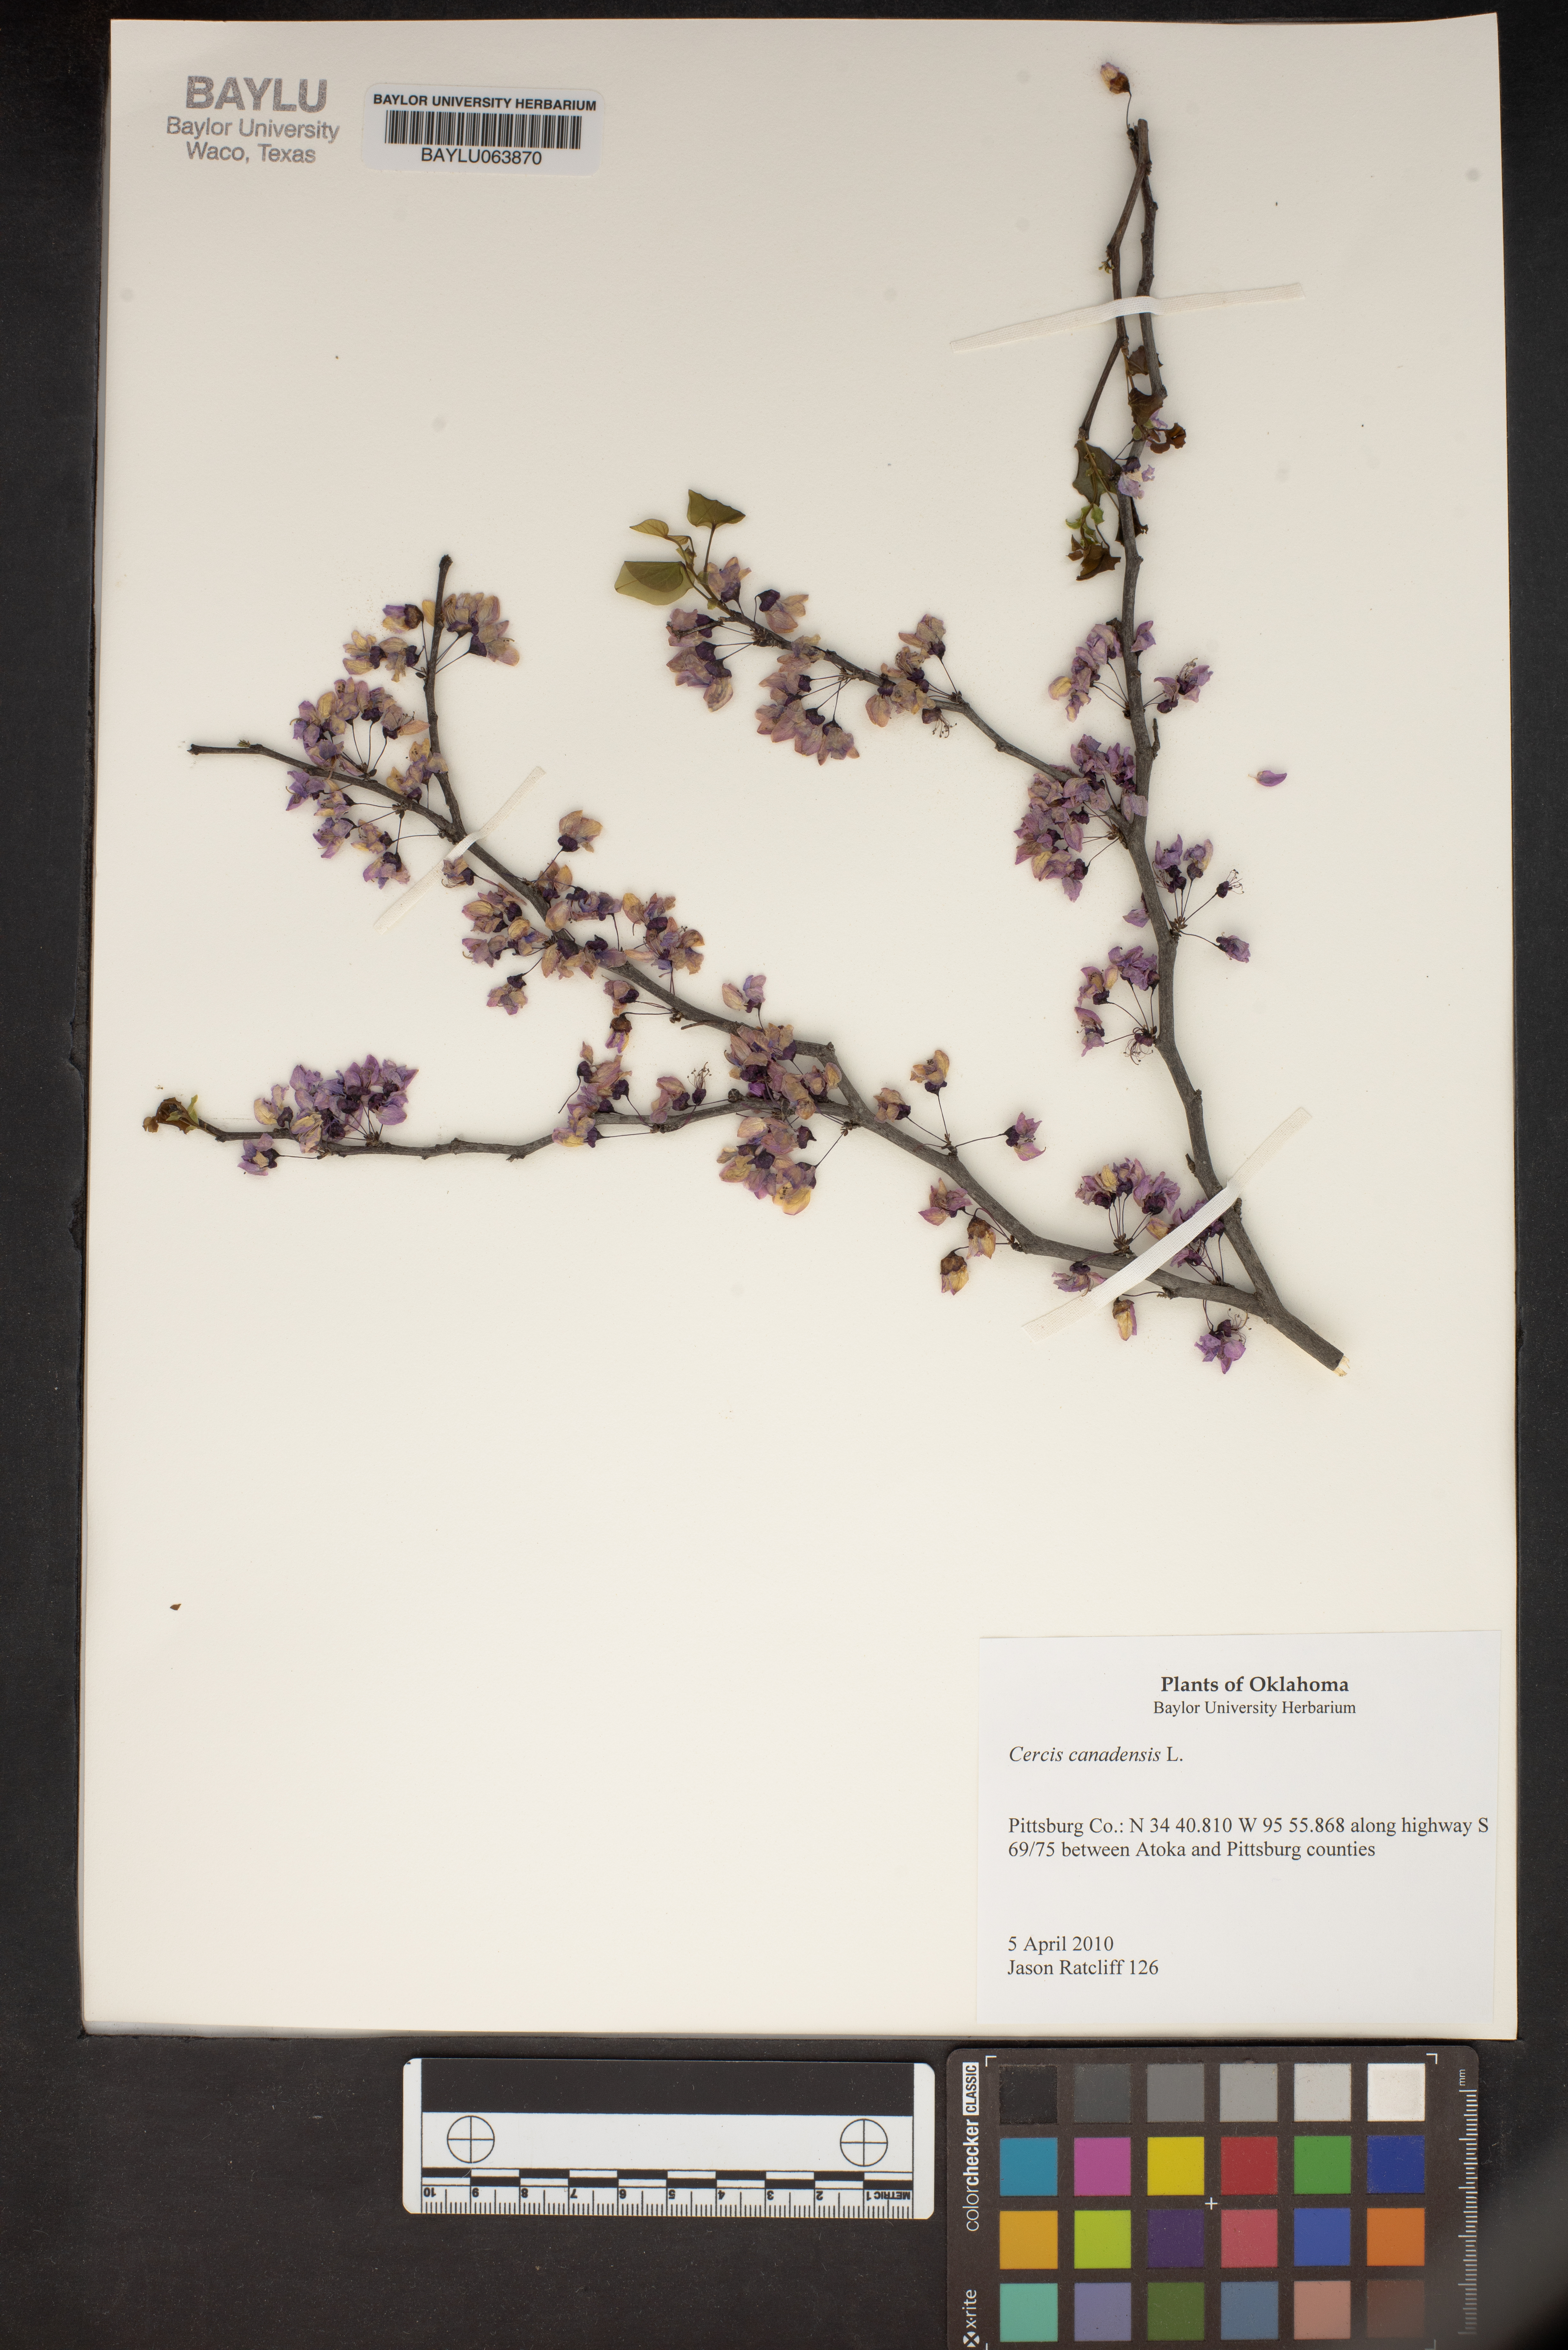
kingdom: Plantae
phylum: Tracheophyta
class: Magnoliopsida
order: Fabales
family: Fabaceae
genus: Cercis
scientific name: Cercis canadensis
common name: Eastern redbud
